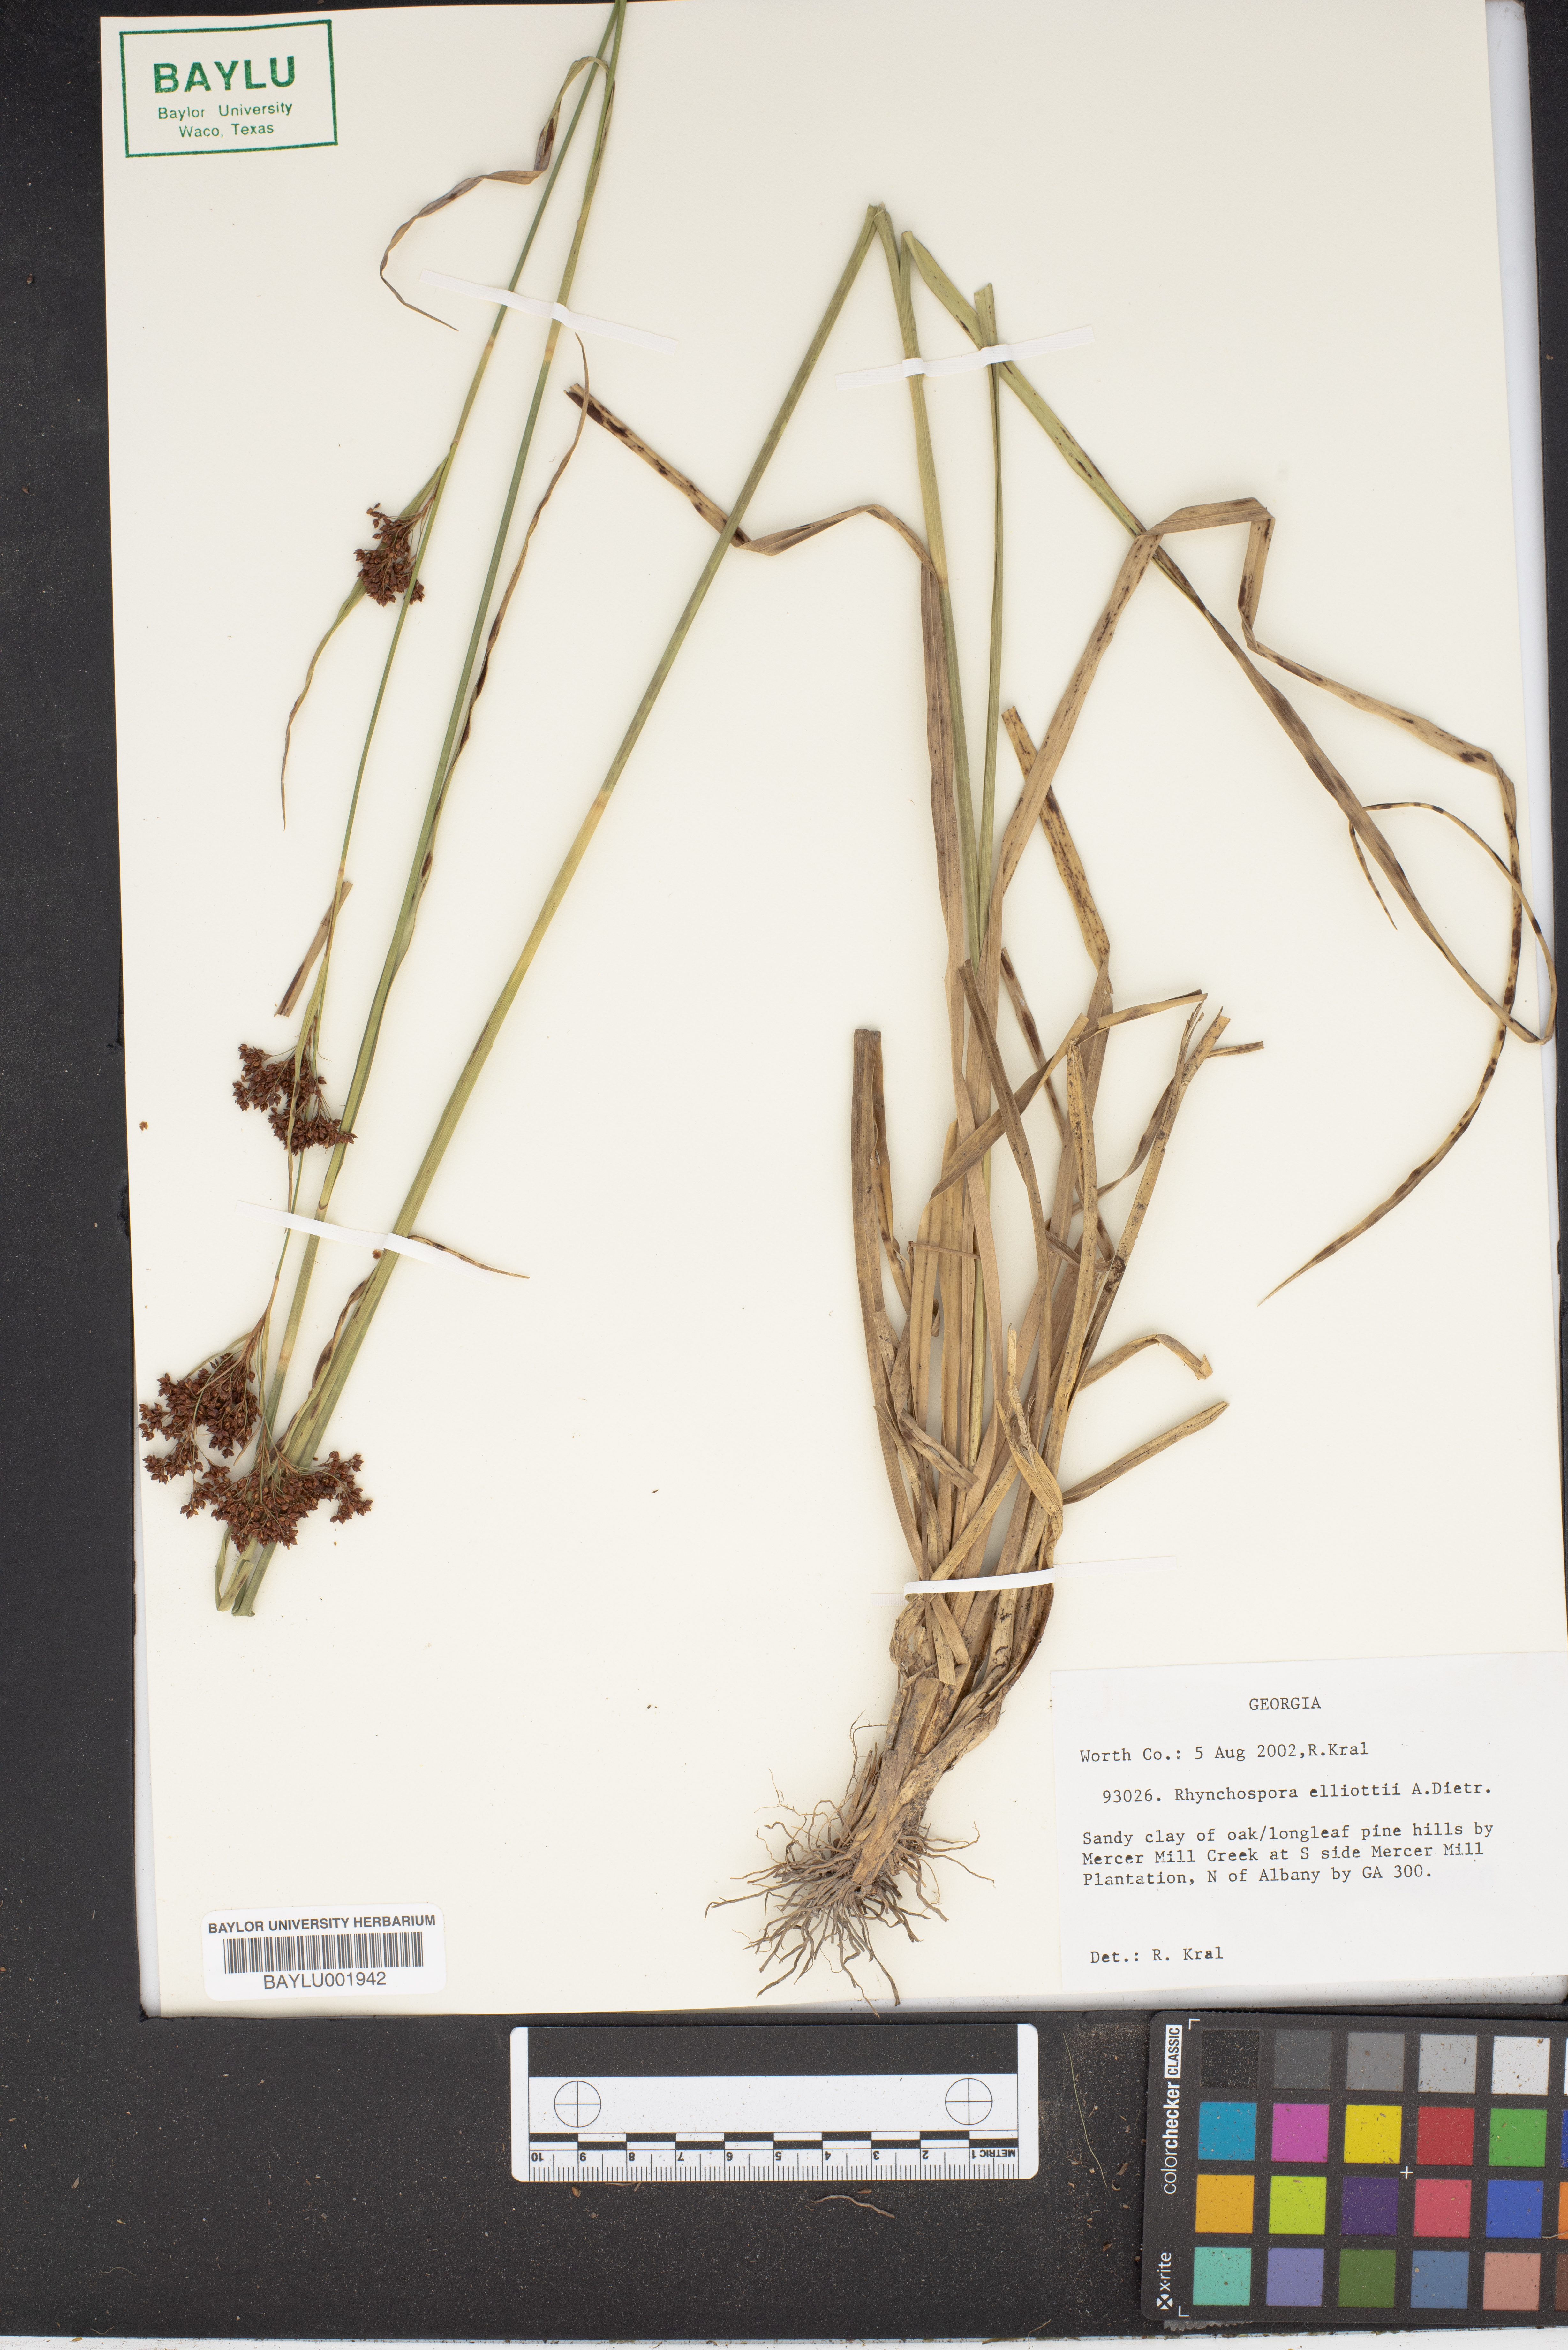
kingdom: Plantae
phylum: Tracheophyta
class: Liliopsida
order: Poales
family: Cyperaceae
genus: Rhynchospora
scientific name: Rhynchospora elliottii
